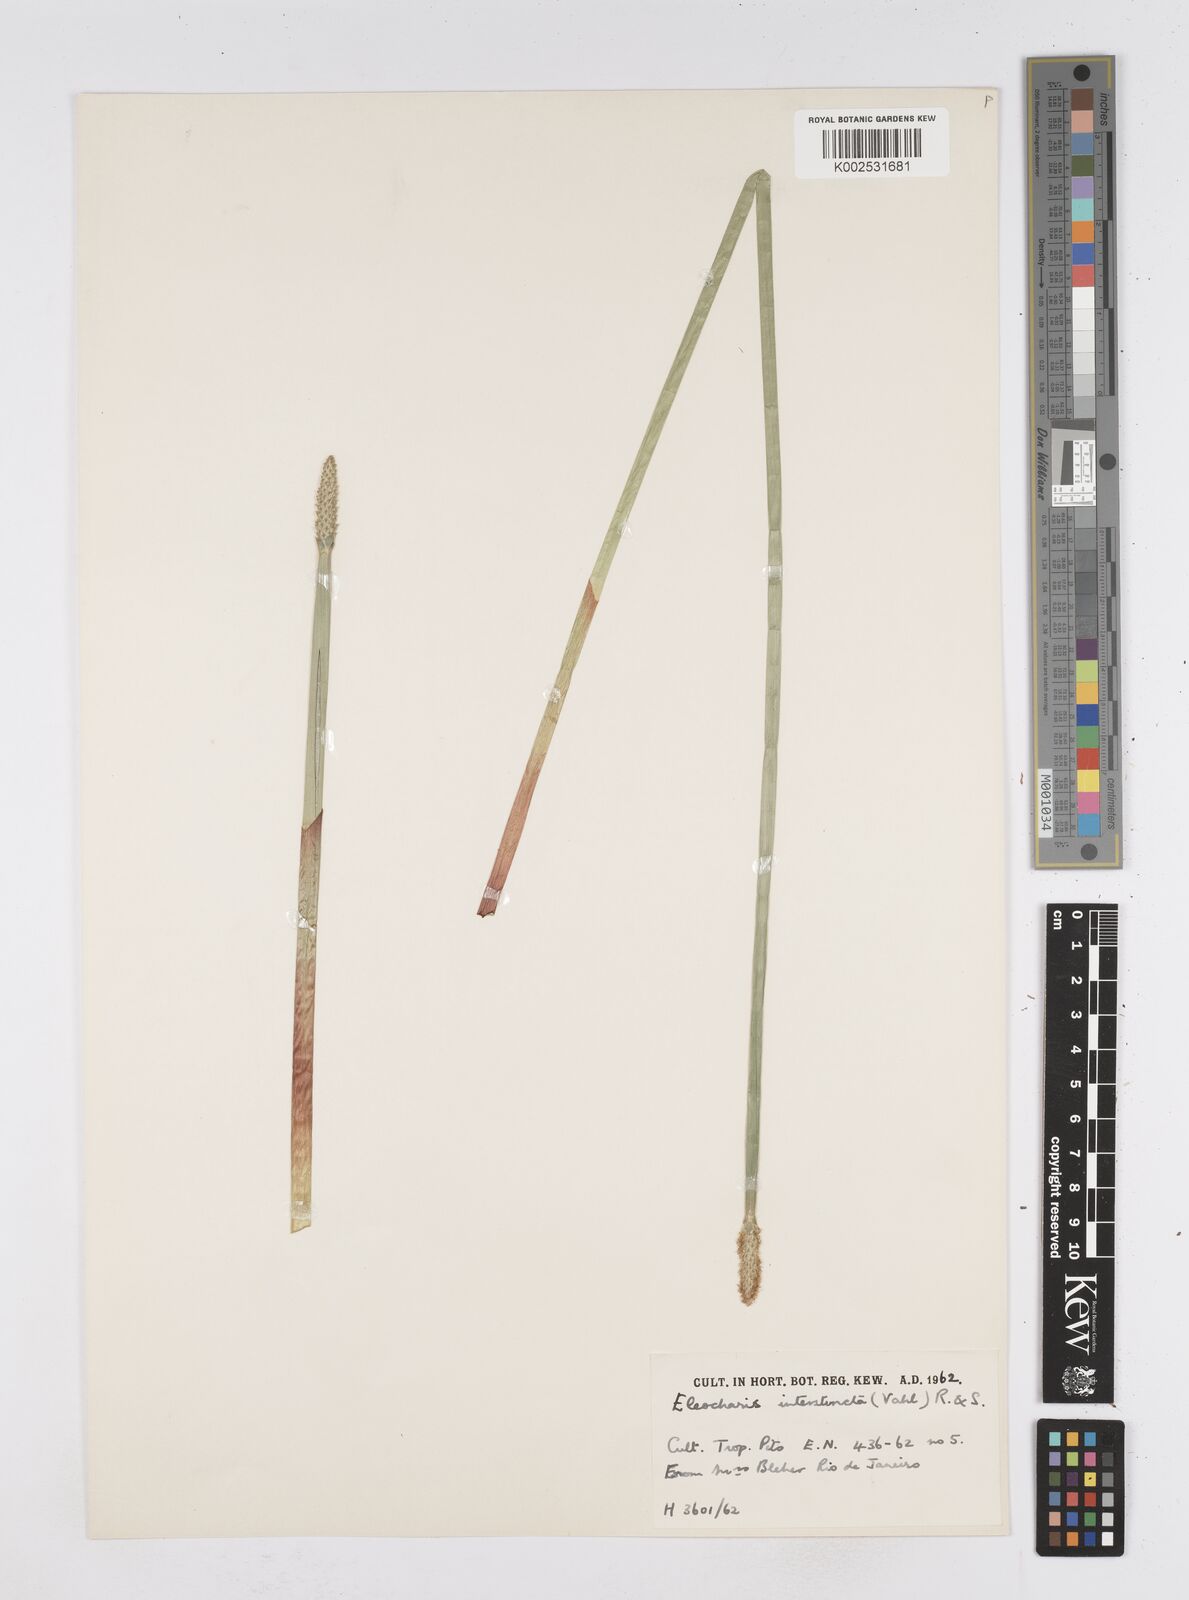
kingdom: Plantae
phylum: Tracheophyta
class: Liliopsida
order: Poales
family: Cyperaceae
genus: Eleocharis
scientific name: Eleocharis
